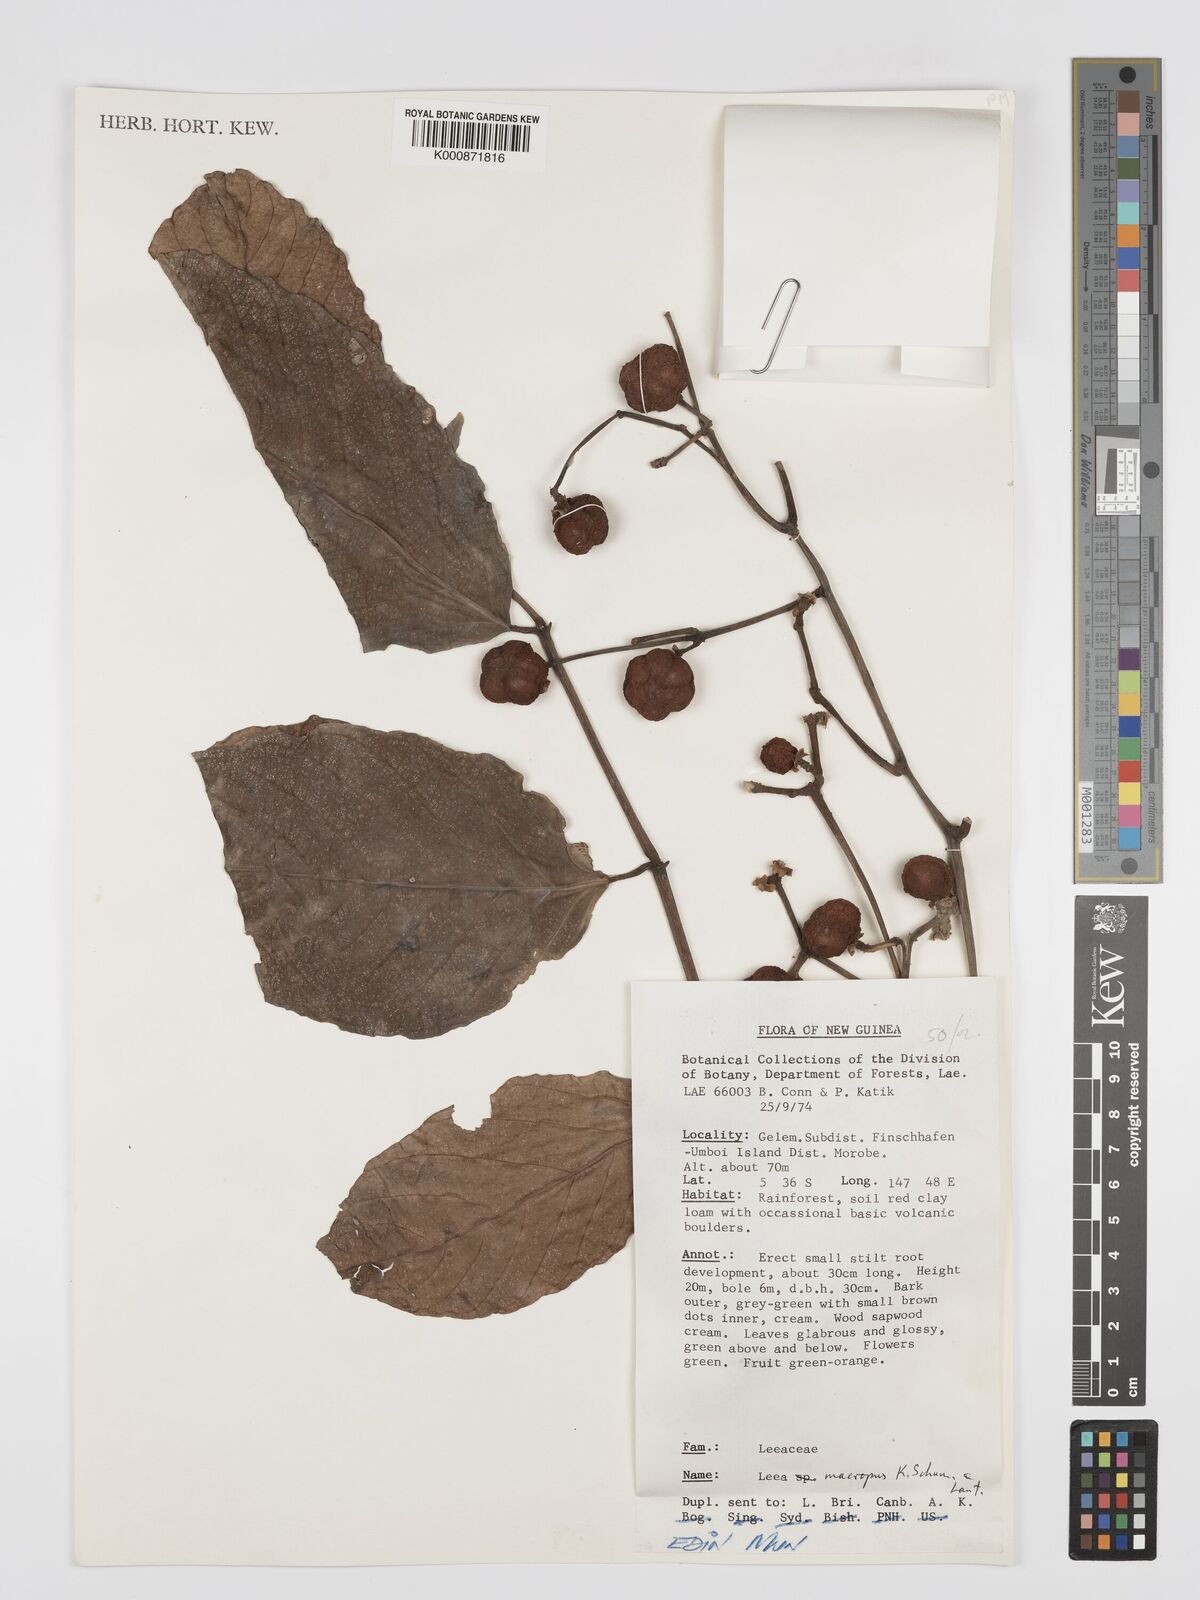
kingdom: Plantae
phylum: Tracheophyta
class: Magnoliopsida
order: Vitales
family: Vitaceae
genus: Leea
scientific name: Leea macropus
